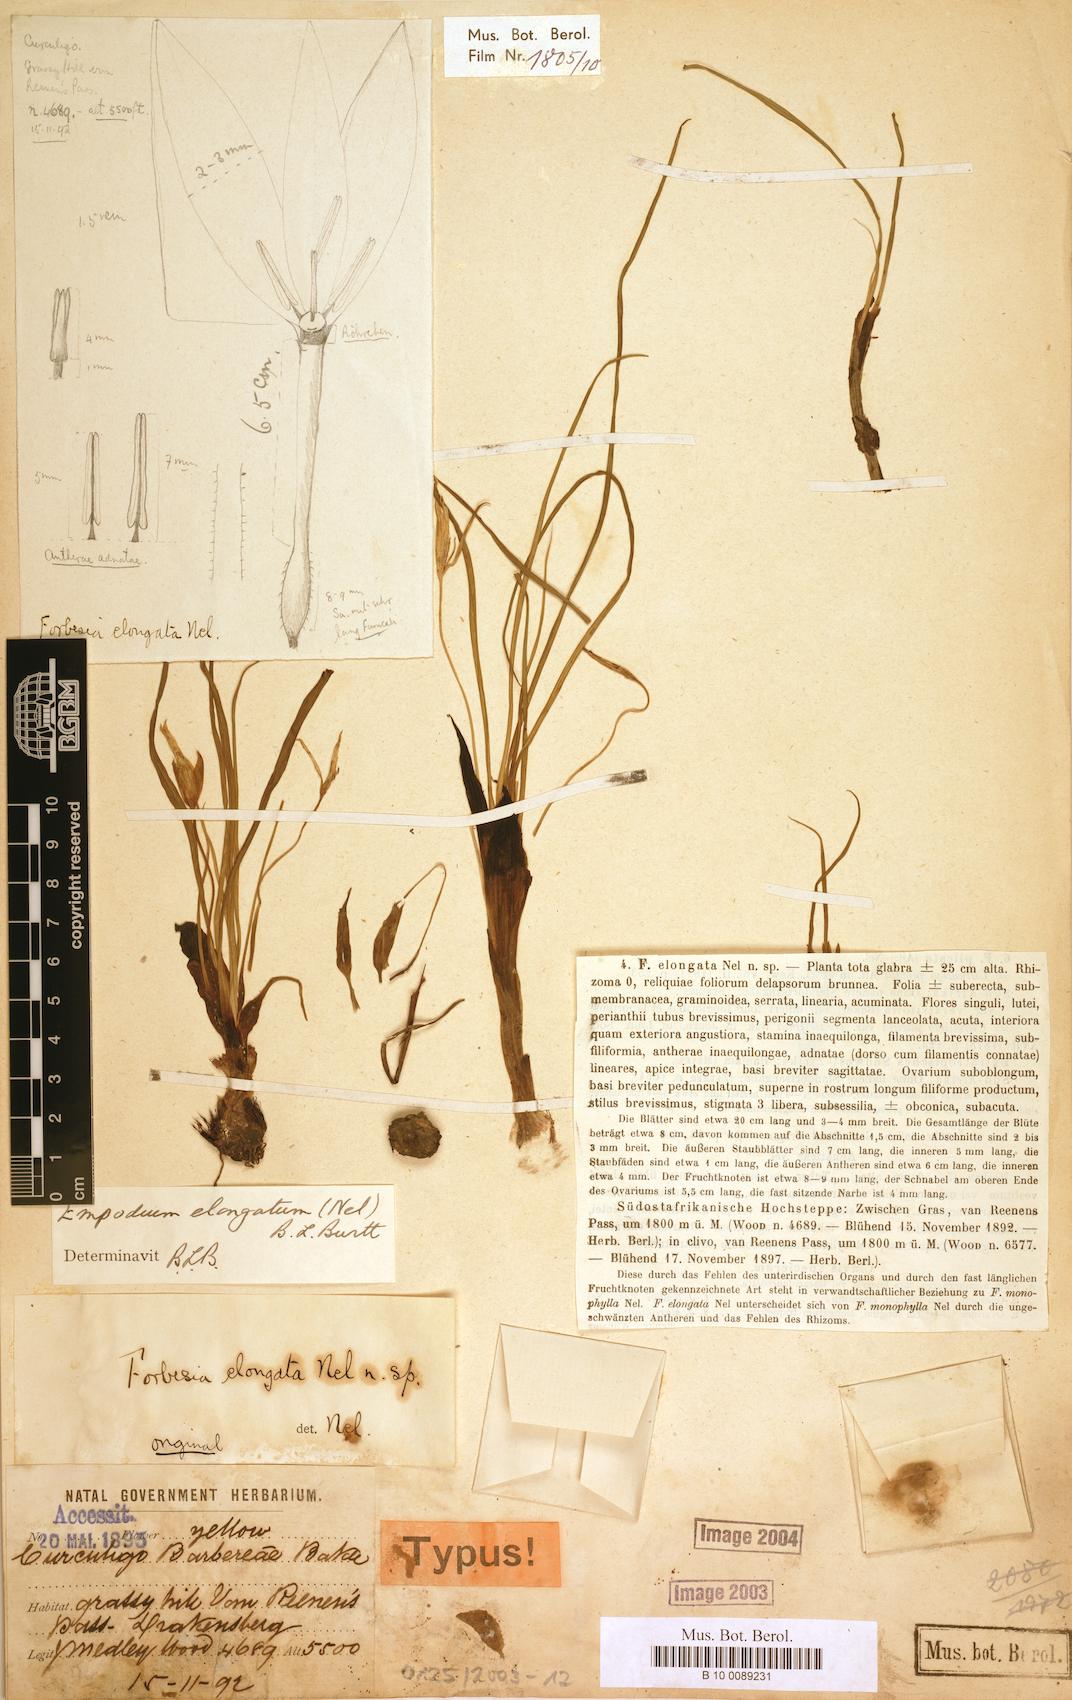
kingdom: Plantae
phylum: Tracheophyta
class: Liliopsida
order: Asparagales
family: Hypoxidaceae
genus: Empodium
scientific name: Empodium elongatum
